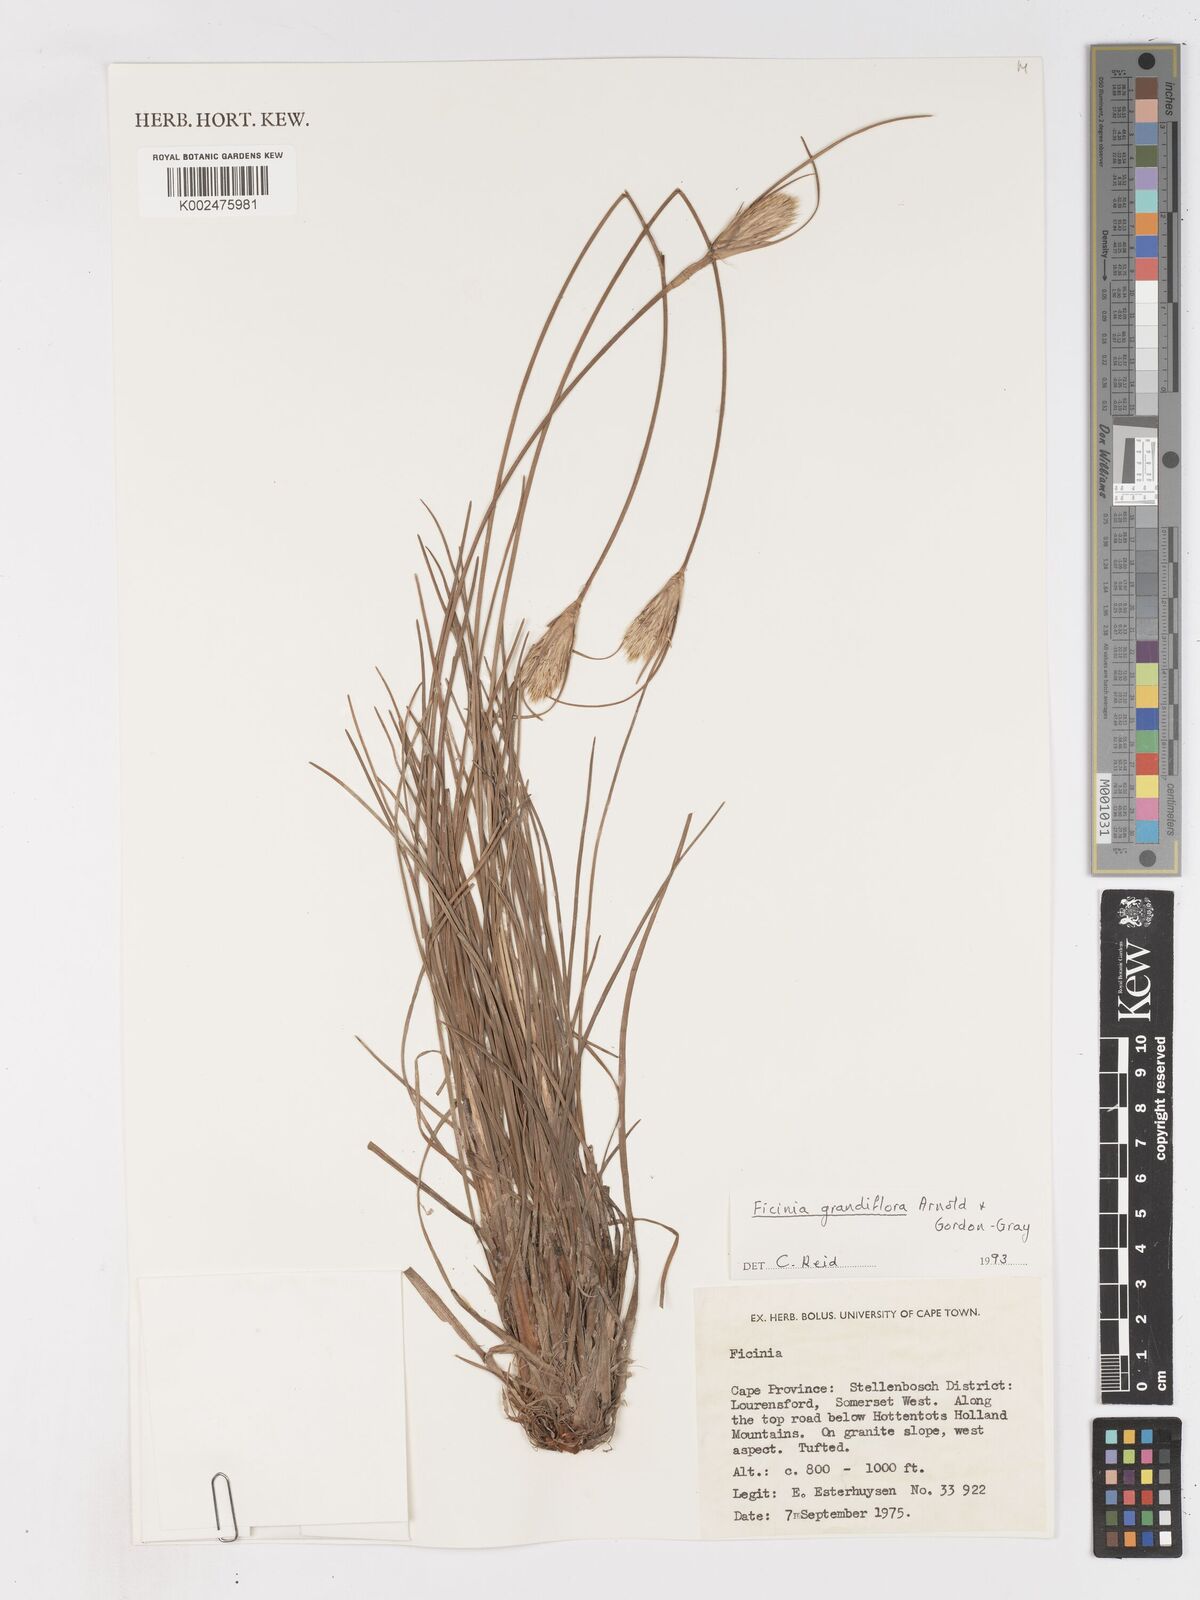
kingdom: Plantae
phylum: Tracheophyta
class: Liliopsida
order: Poales
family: Cyperaceae
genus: Ficinia
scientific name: Ficinia grandiflora
